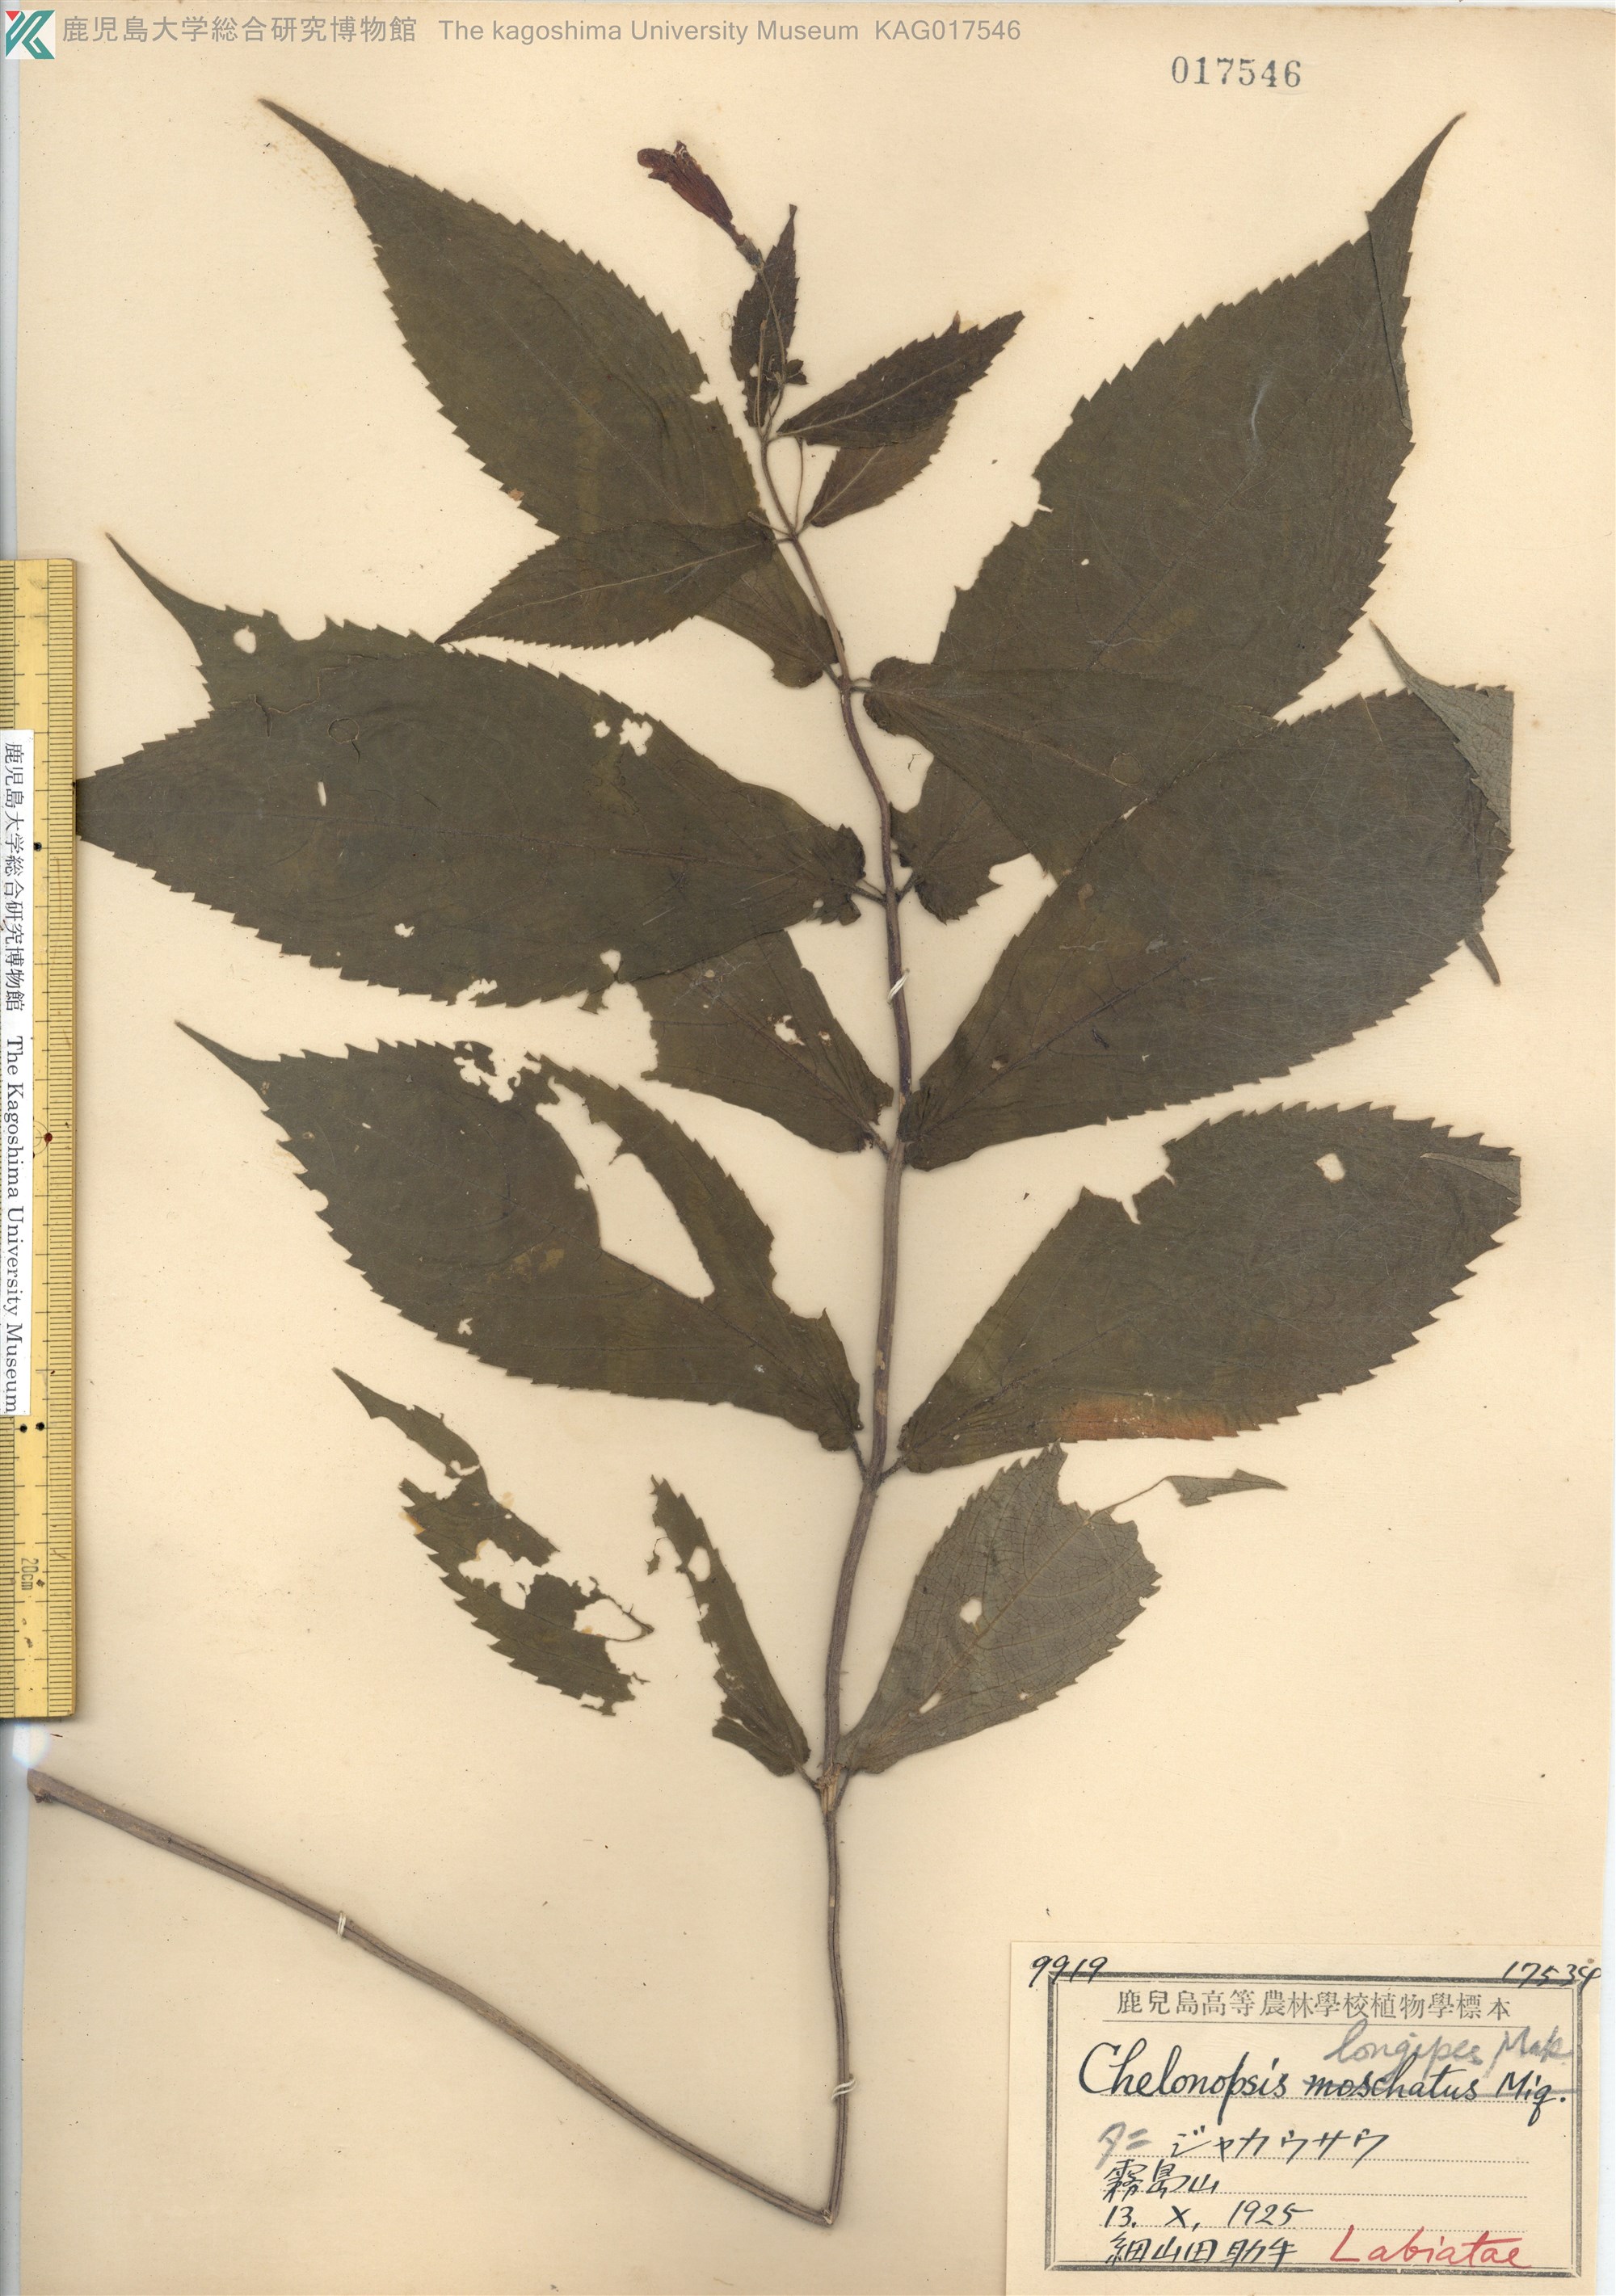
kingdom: Plantae
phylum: Tracheophyta
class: Magnoliopsida
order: Lamiales
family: Lamiaceae
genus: Chelonopsis
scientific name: Chelonopsis longipes
